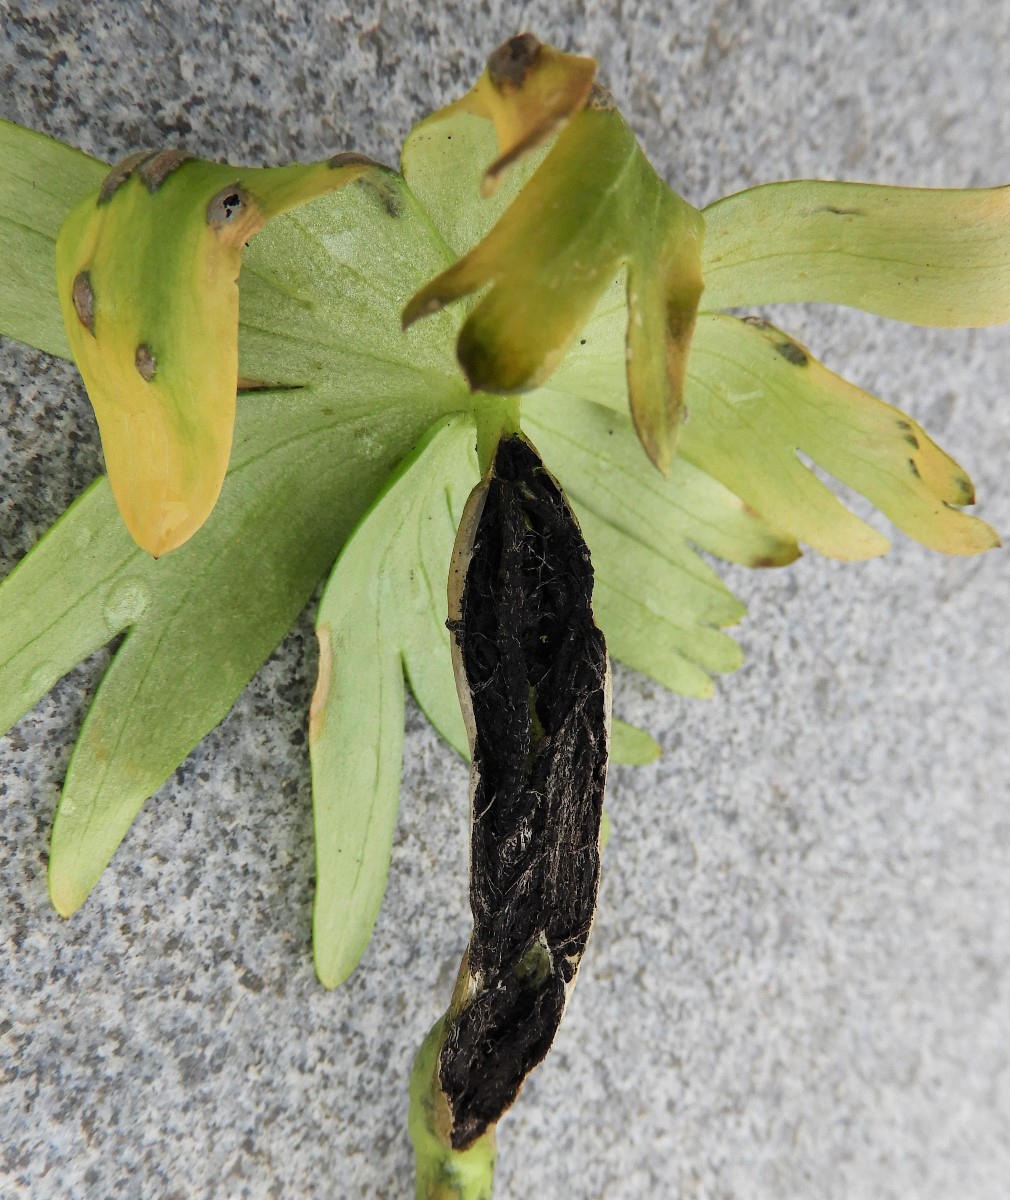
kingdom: Fungi
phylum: Basidiomycota
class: Ustilaginomycetes
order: Urocystidales
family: Urocystidaceae
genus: Urocystis
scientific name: Urocystis eranthidis
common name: erantis-brand
